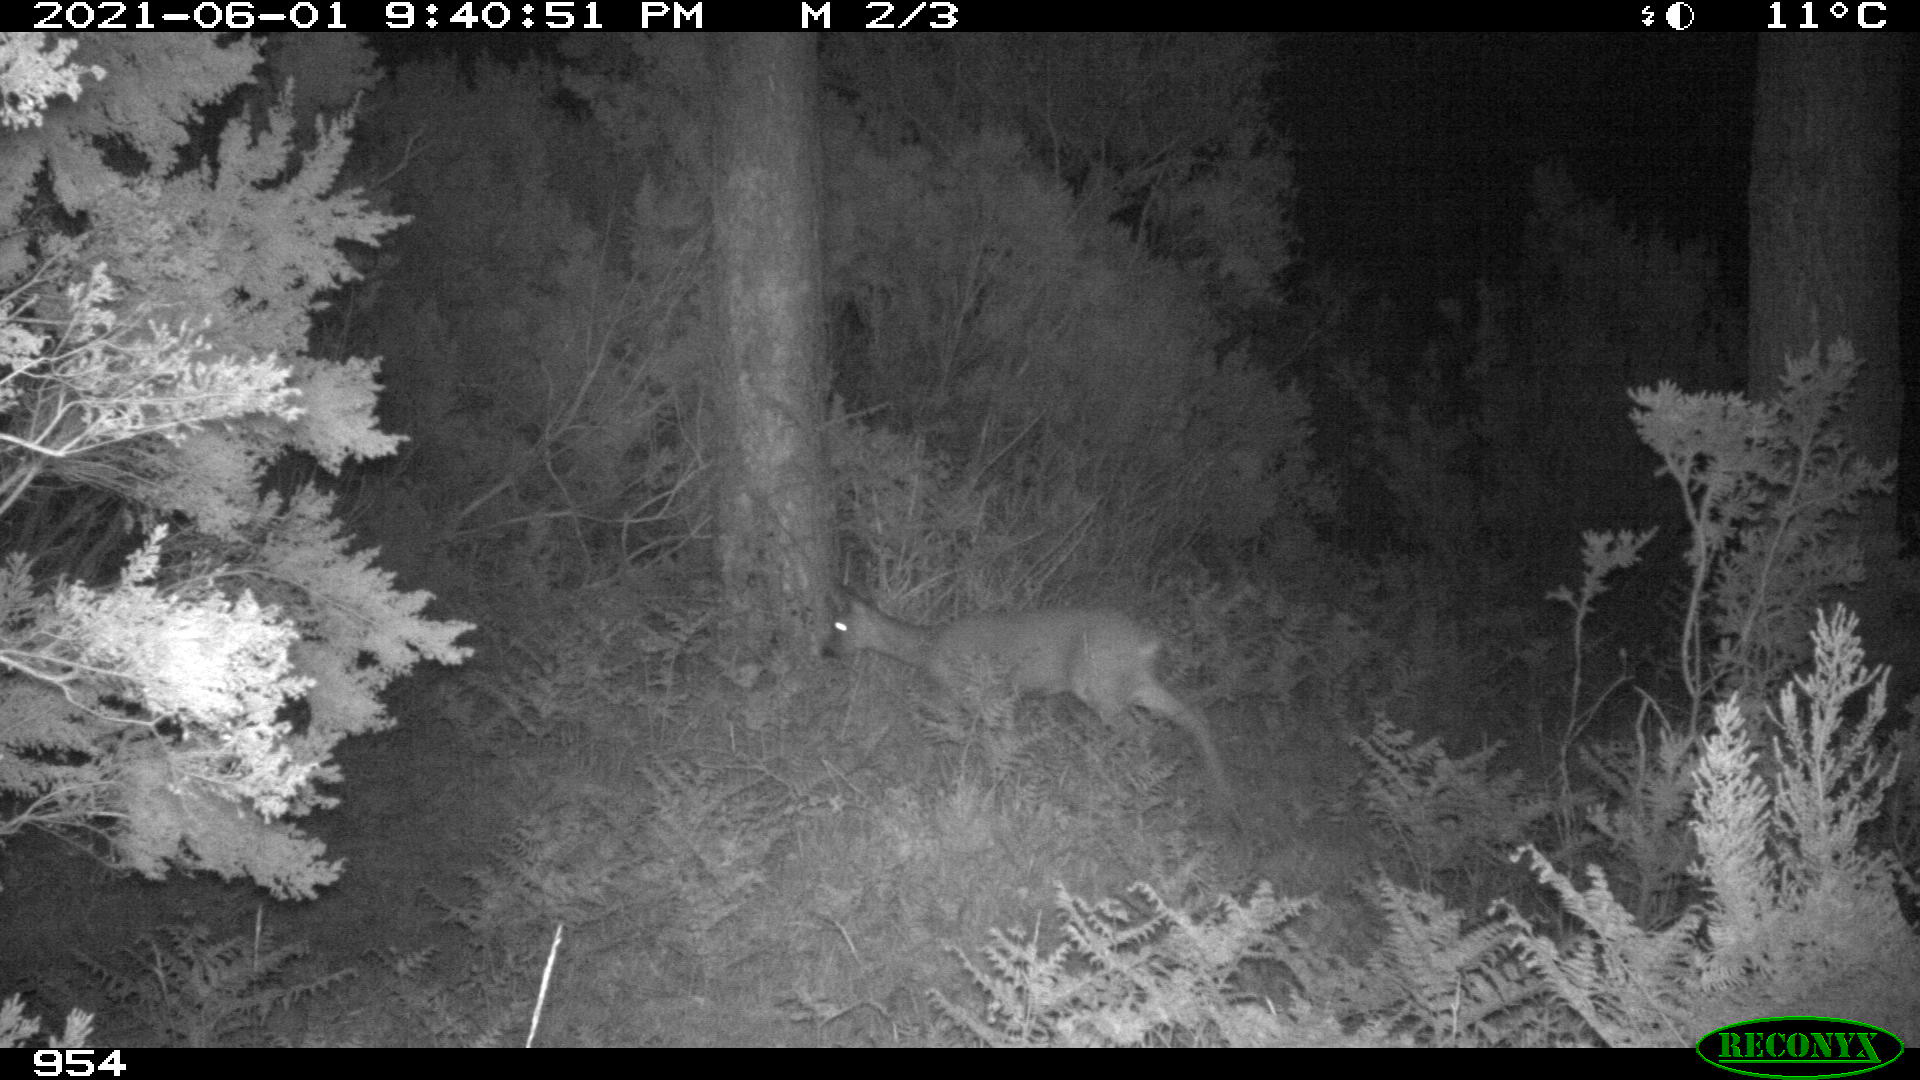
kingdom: Animalia
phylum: Chordata
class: Mammalia
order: Artiodactyla
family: Cervidae
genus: Capreolus
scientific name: Capreolus capreolus
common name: Western roe deer
